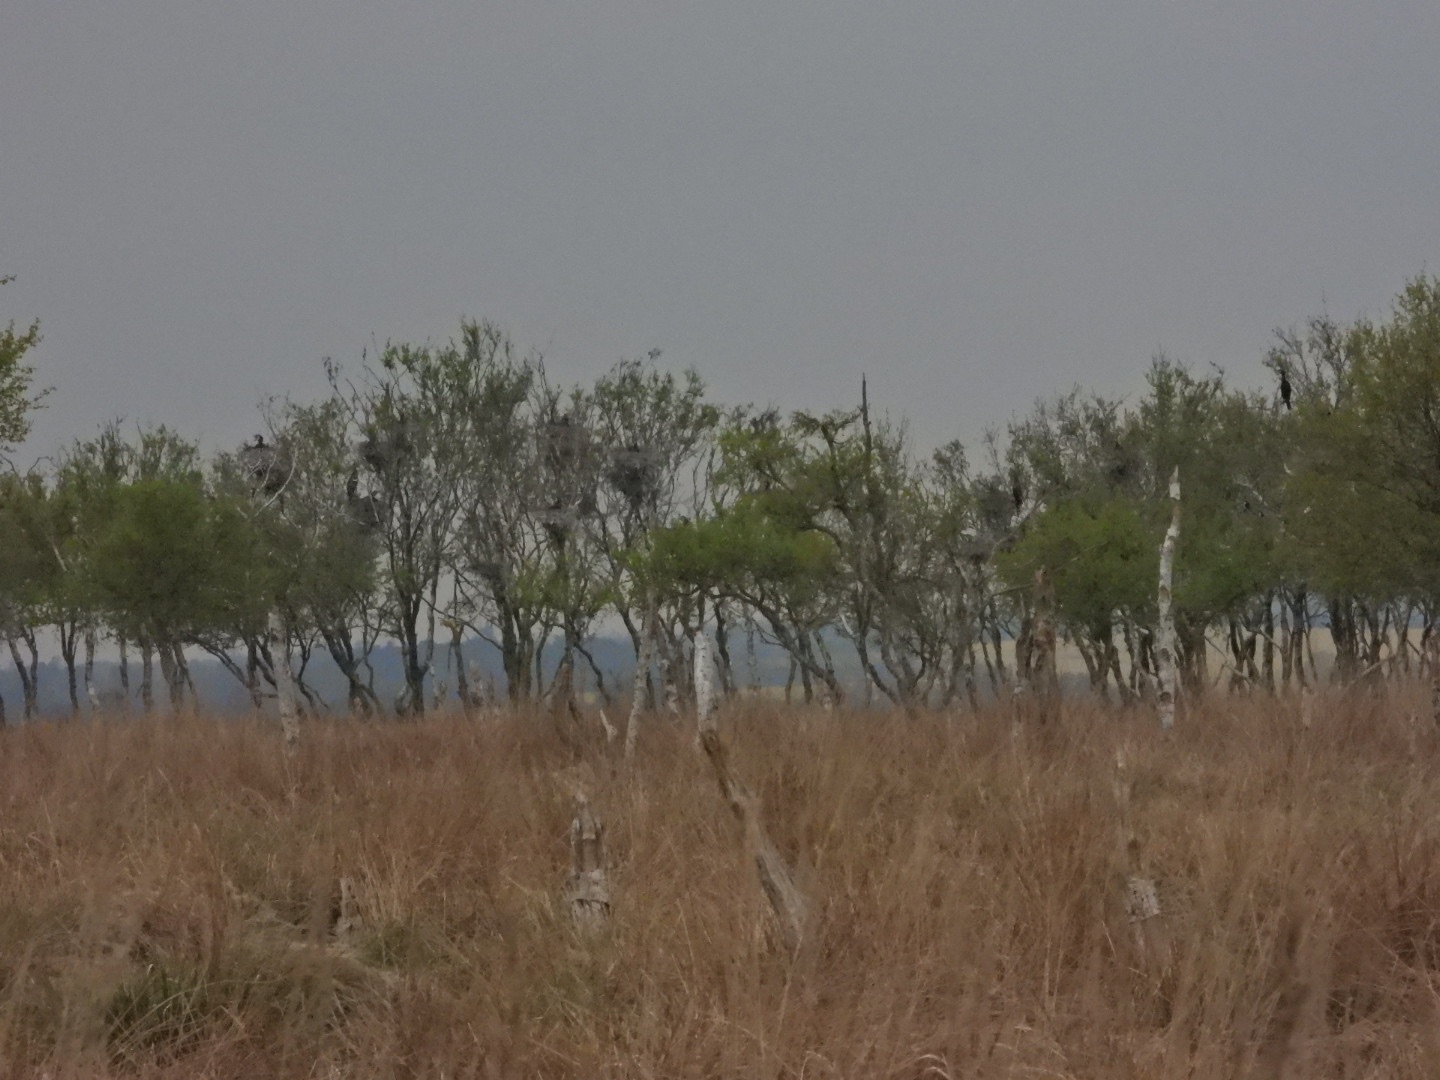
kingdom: Animalia
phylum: Chordata
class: Aves
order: Suliformes
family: Phalacrocoracidae
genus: Phalacrocorax
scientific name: Phalacrocorax carbo
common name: Skarv
